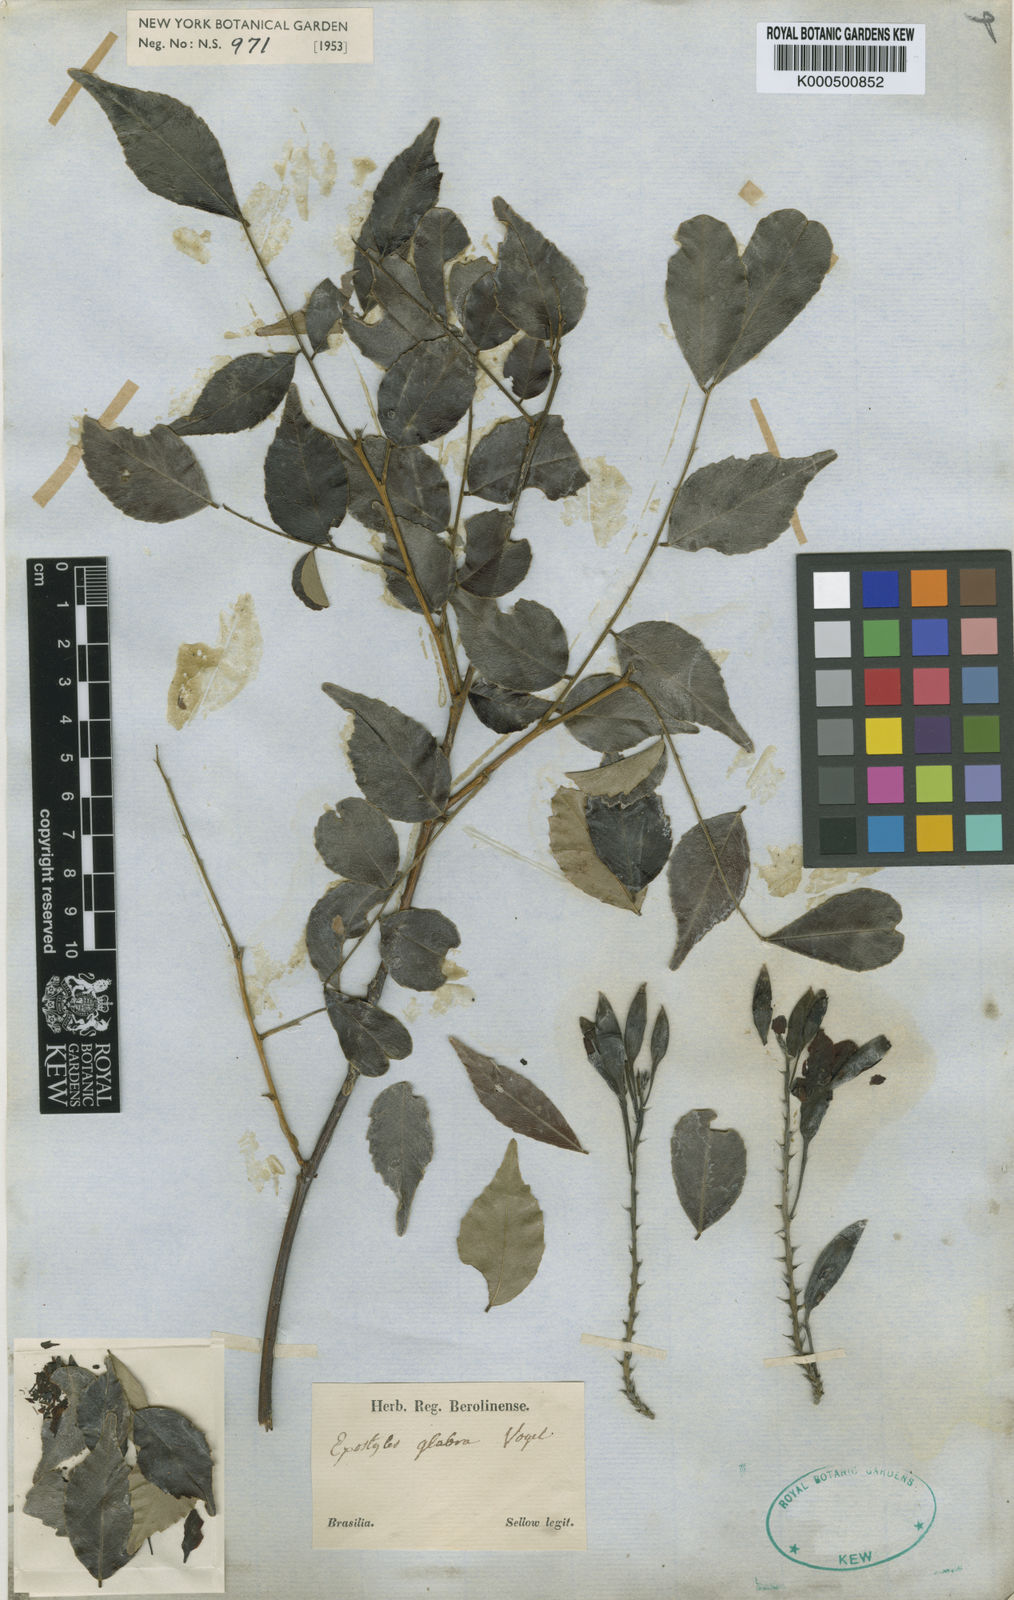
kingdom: Plantae
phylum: Tracheophyta
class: Magnoliopsida
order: Fabales
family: Fabaceae
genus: Exostyles
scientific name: Exostyles glabra
